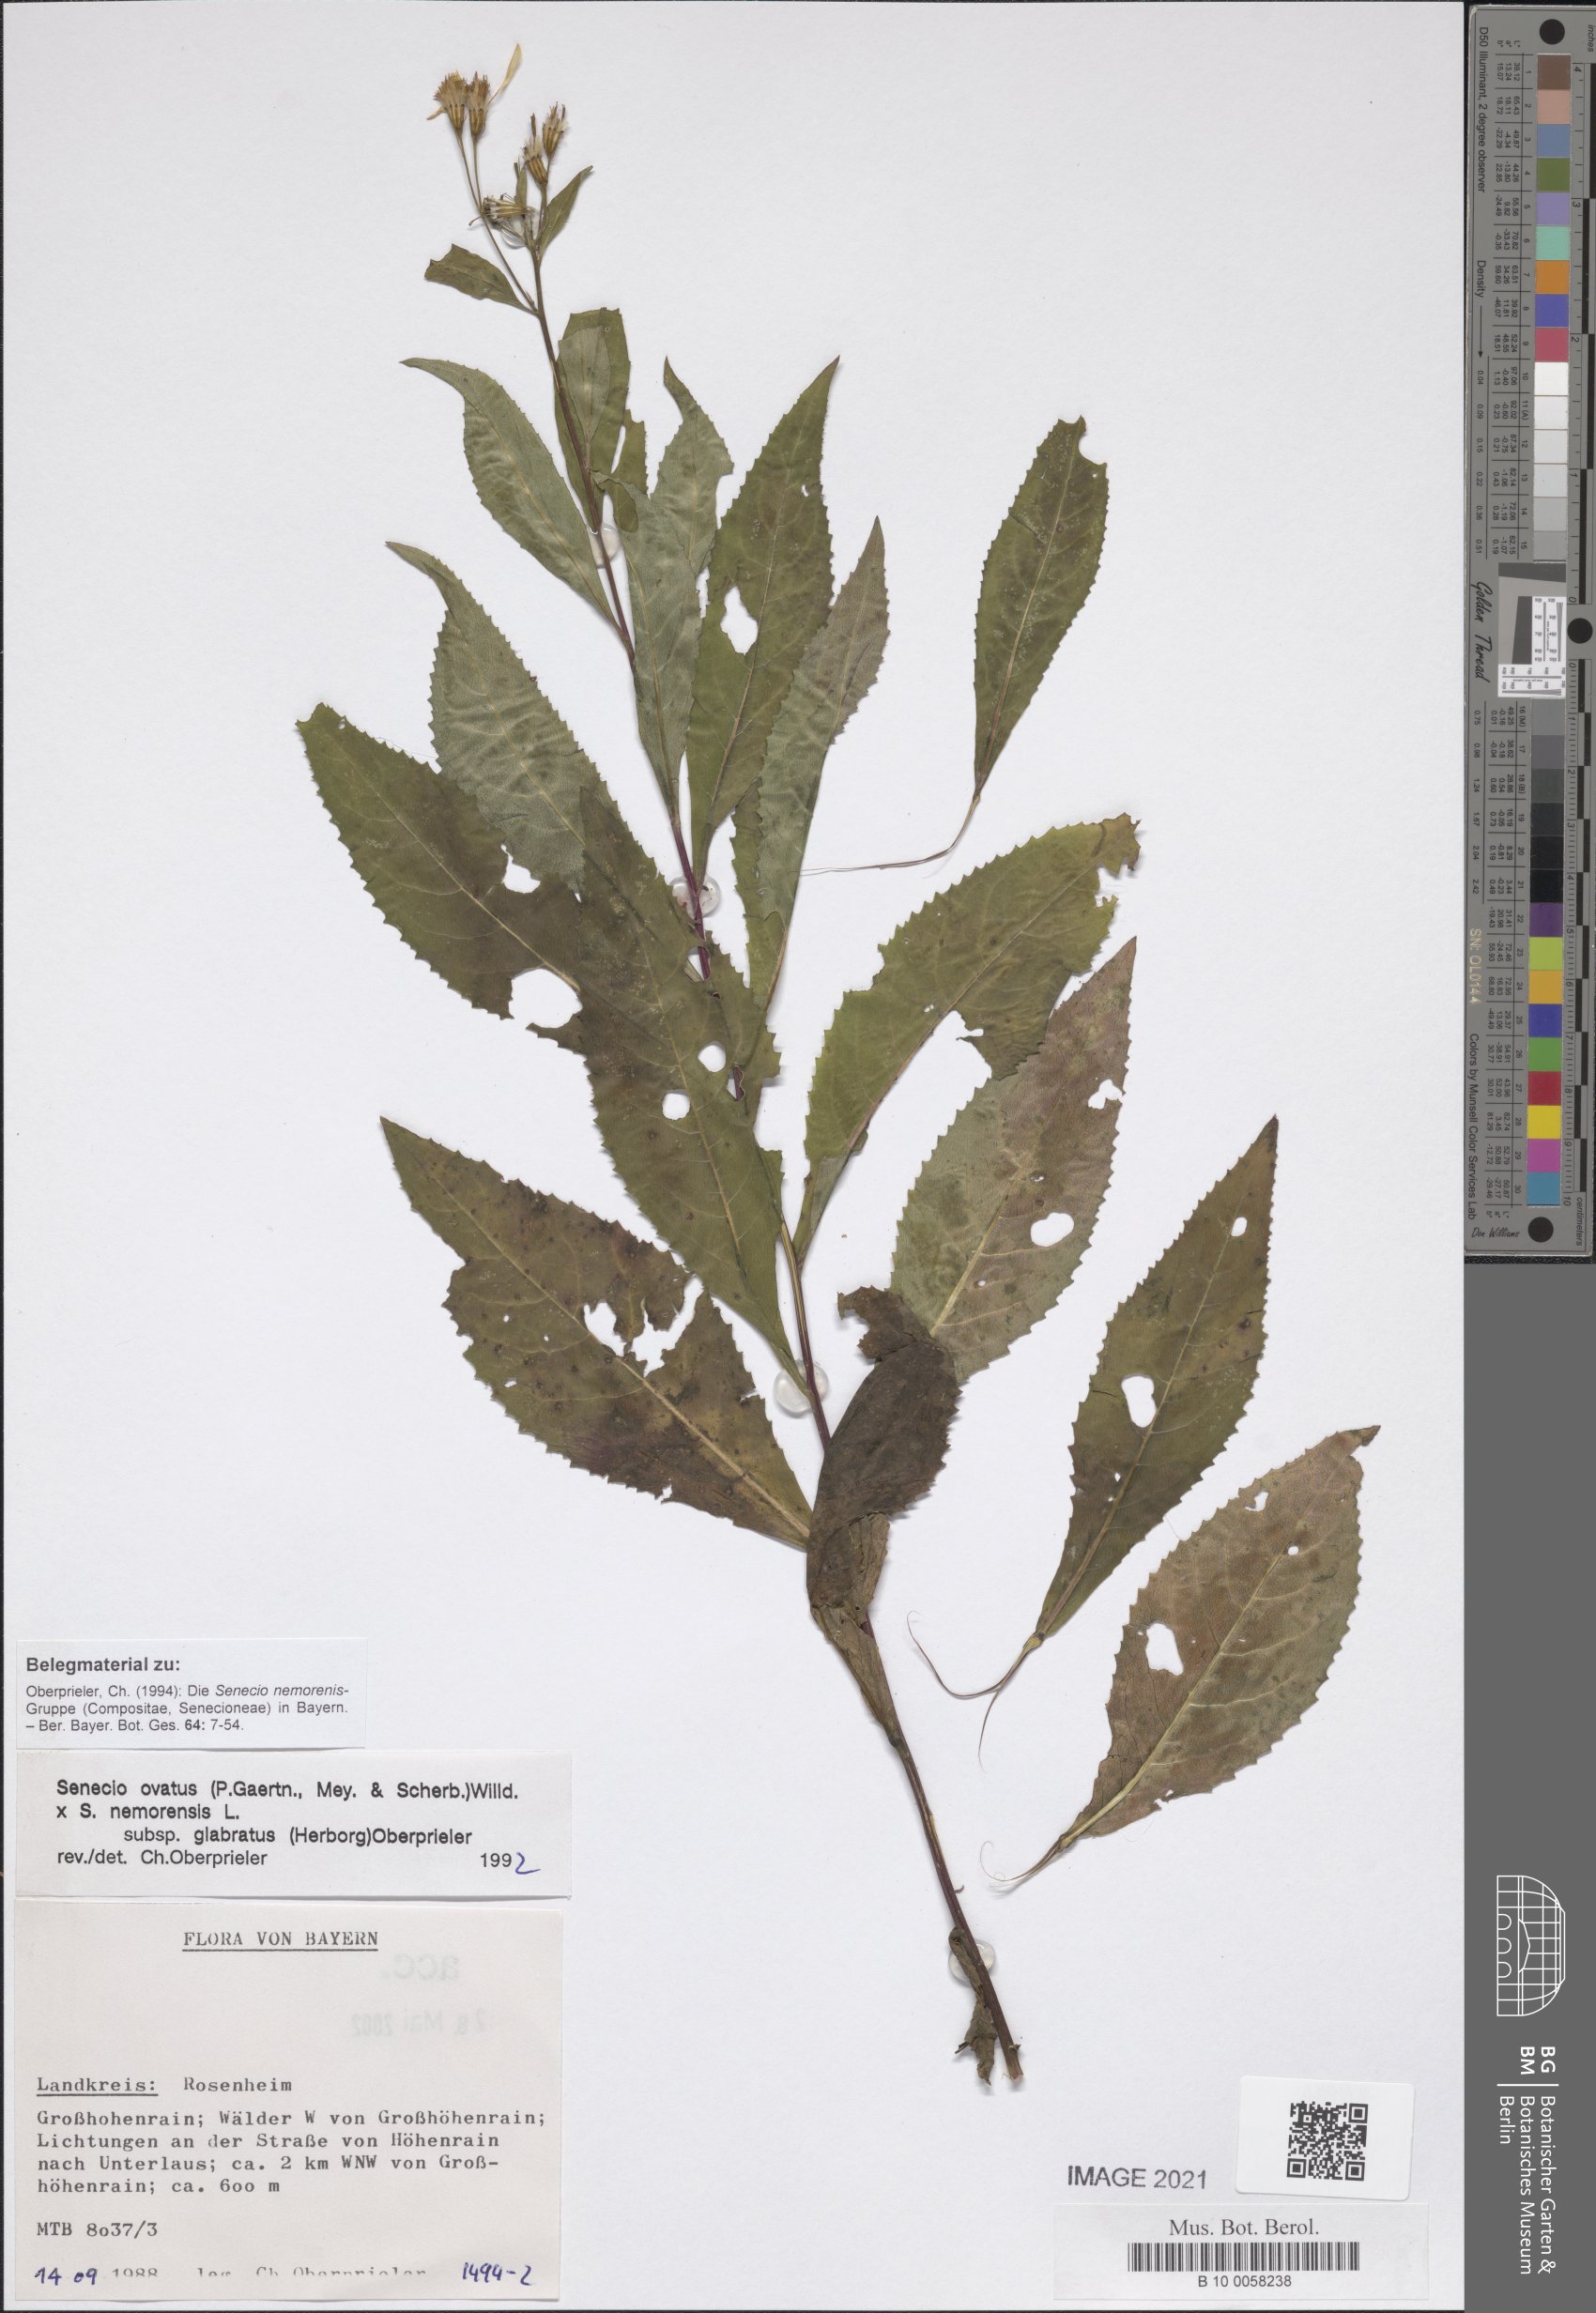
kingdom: Plantae
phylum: Tracheophyta
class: Magnoliopsida
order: Asterales
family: Asteraceae
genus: Senecio
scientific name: Senecio ovatus
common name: Wood ragwort
